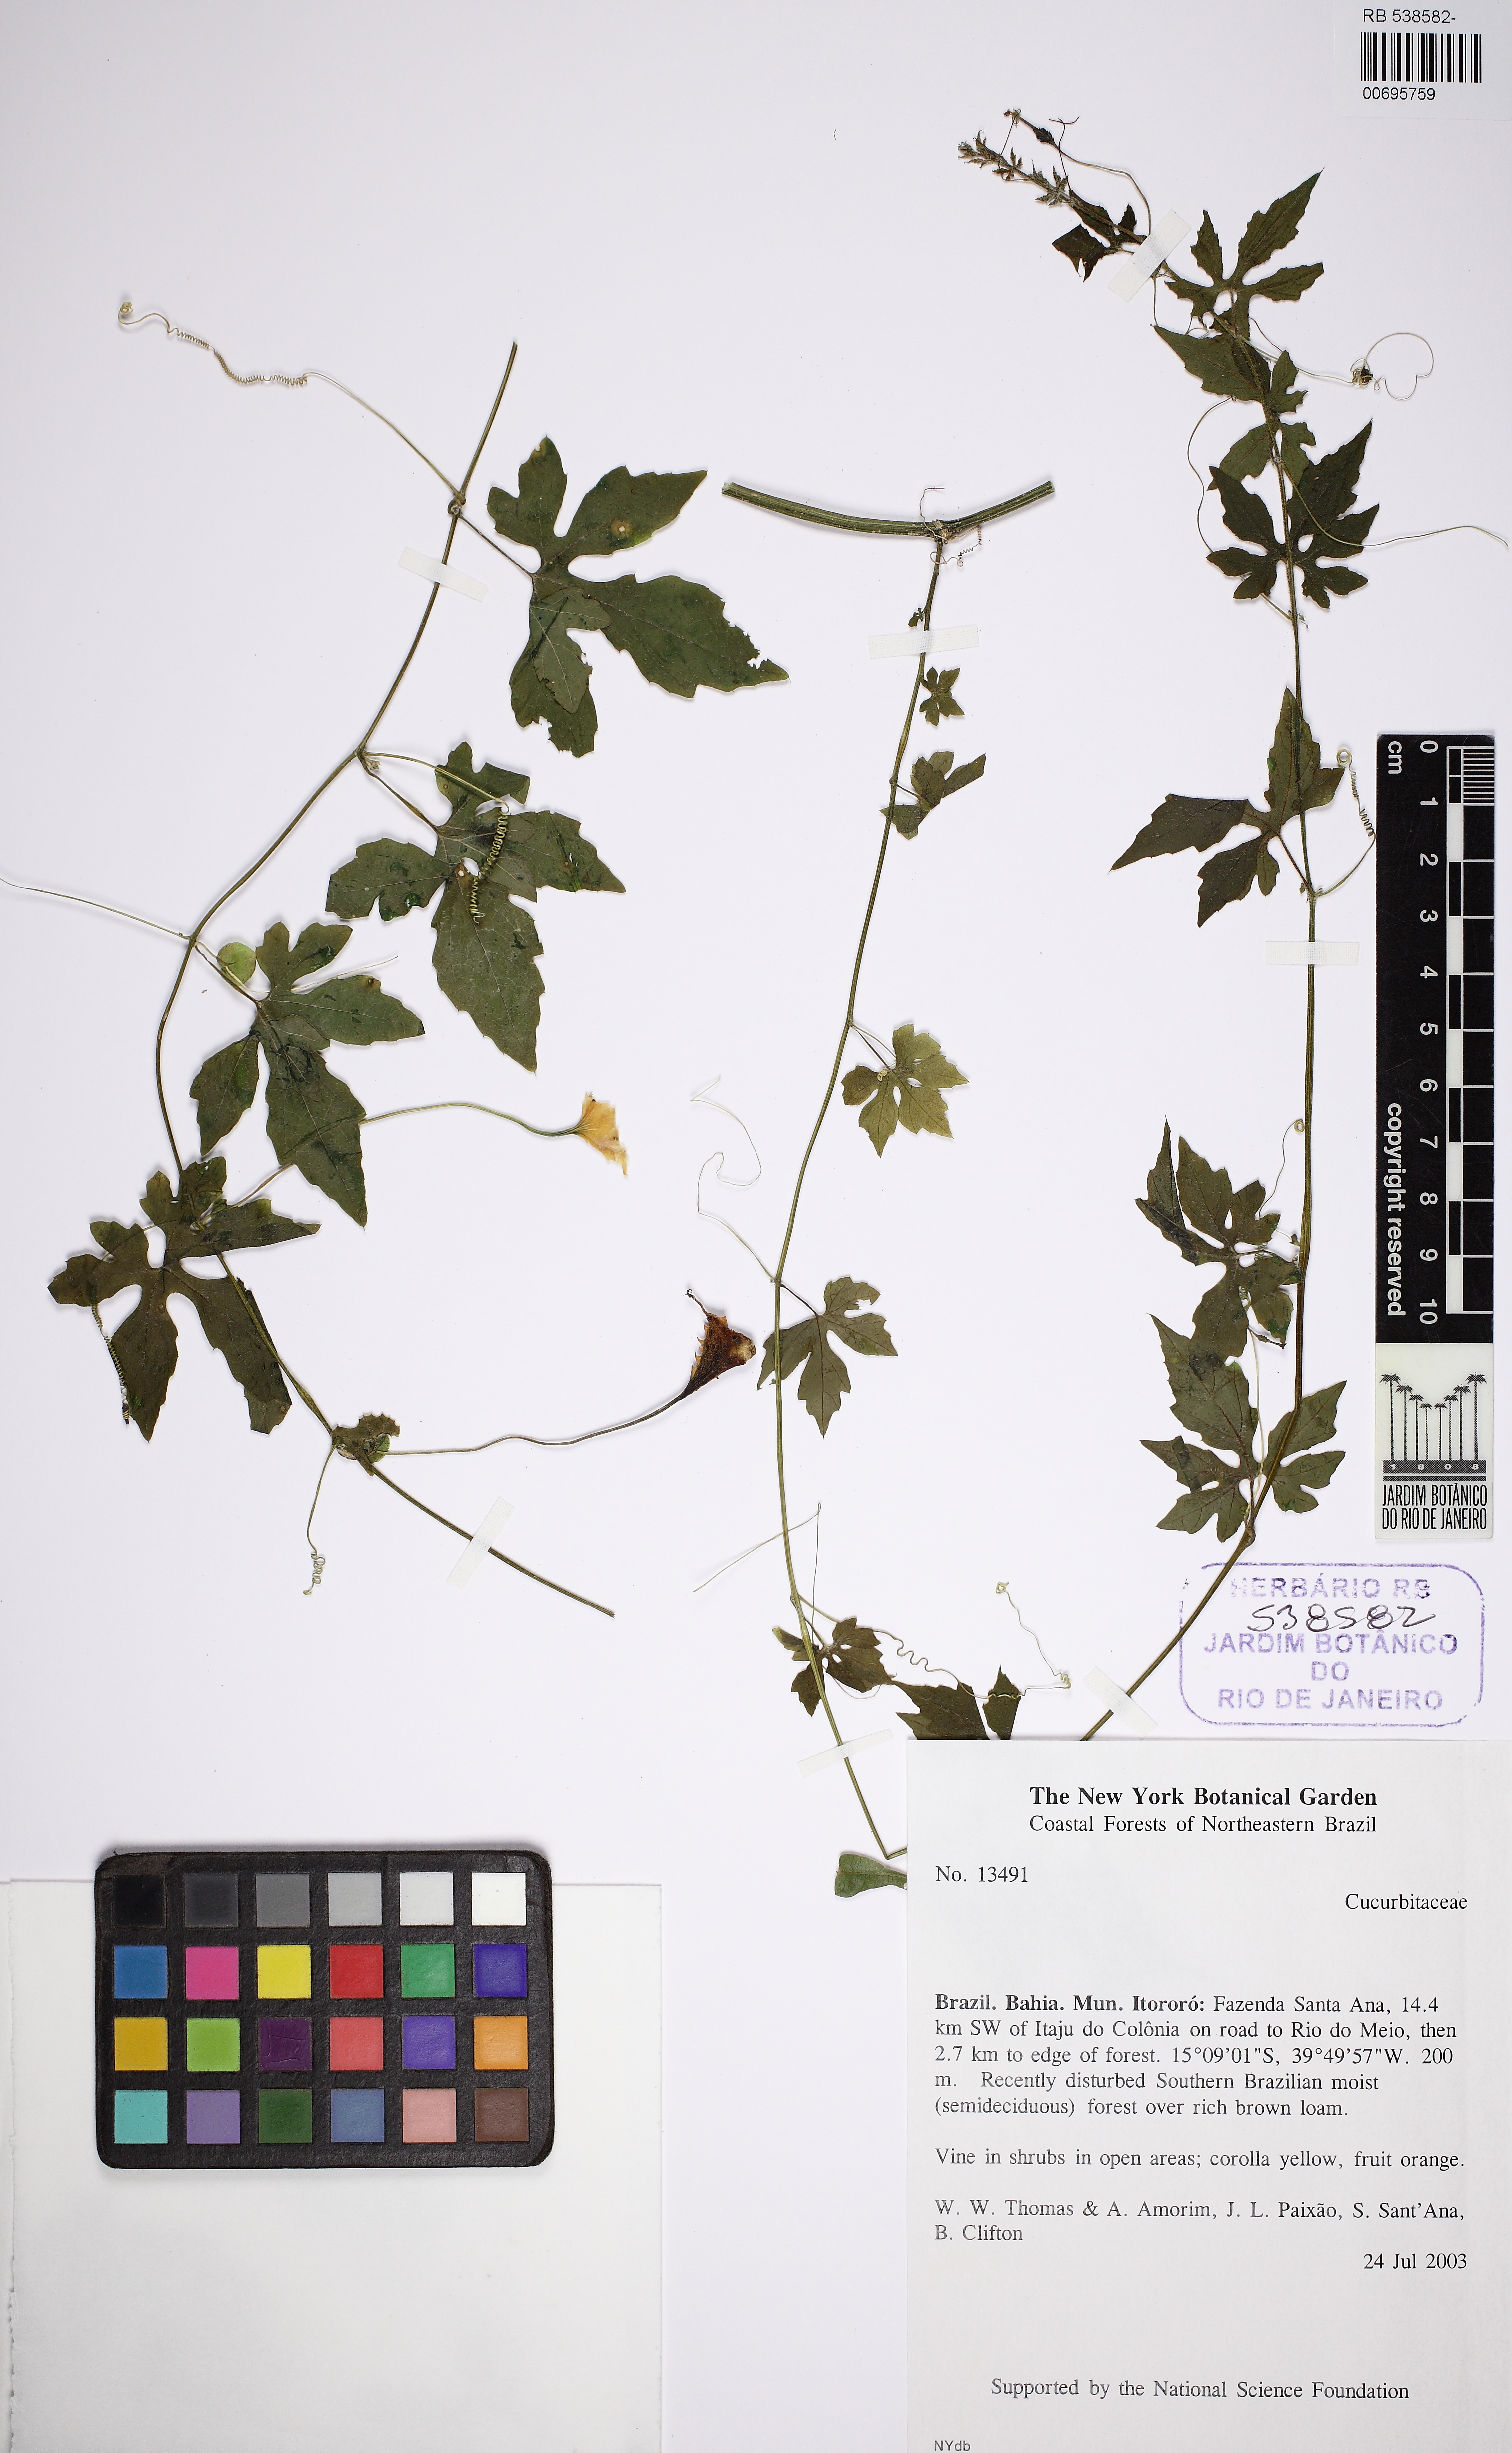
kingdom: Plantae
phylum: Tracheophyta
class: Magnoliopsida
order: Cucurbitales
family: Cucurbitaceae
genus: Momordica
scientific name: Momordica charantia
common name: Balsampear
